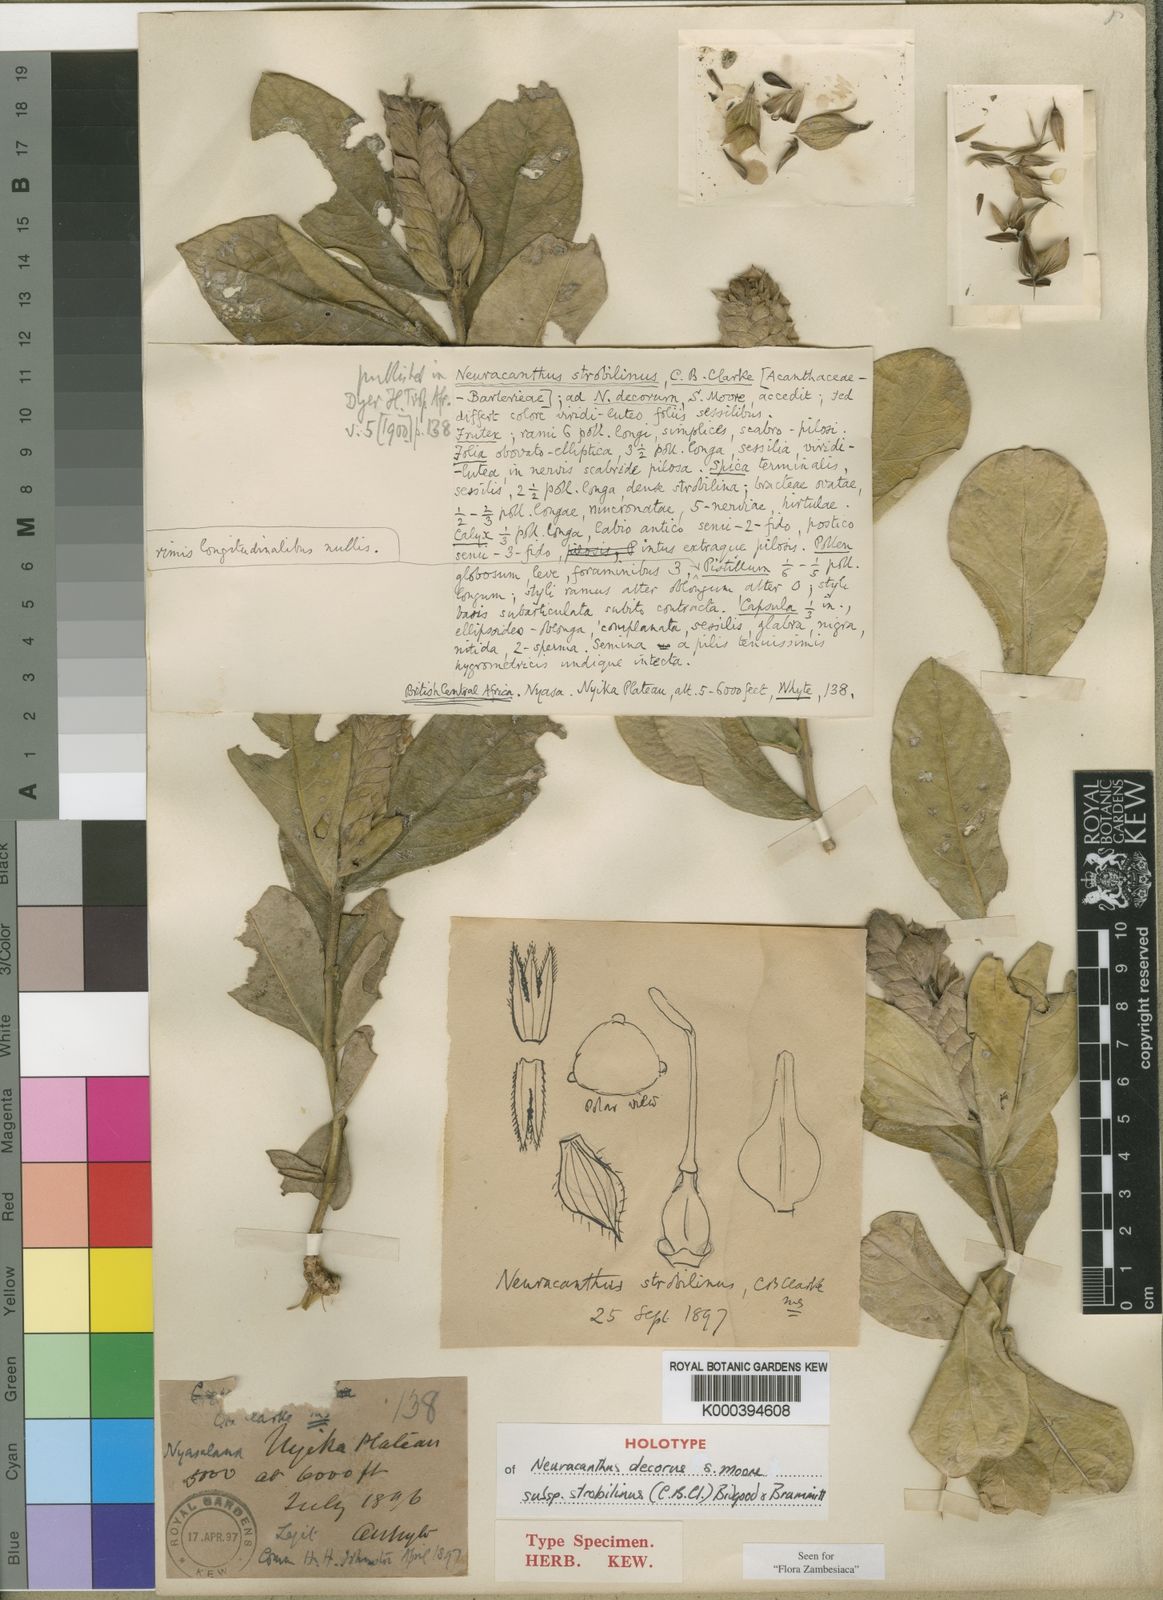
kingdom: Plantae
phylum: Tracheophyta
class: Magnoliopsida
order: Lamiales
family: Acanthaceae
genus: Neuracanthus
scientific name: Neuracanthus decorus
